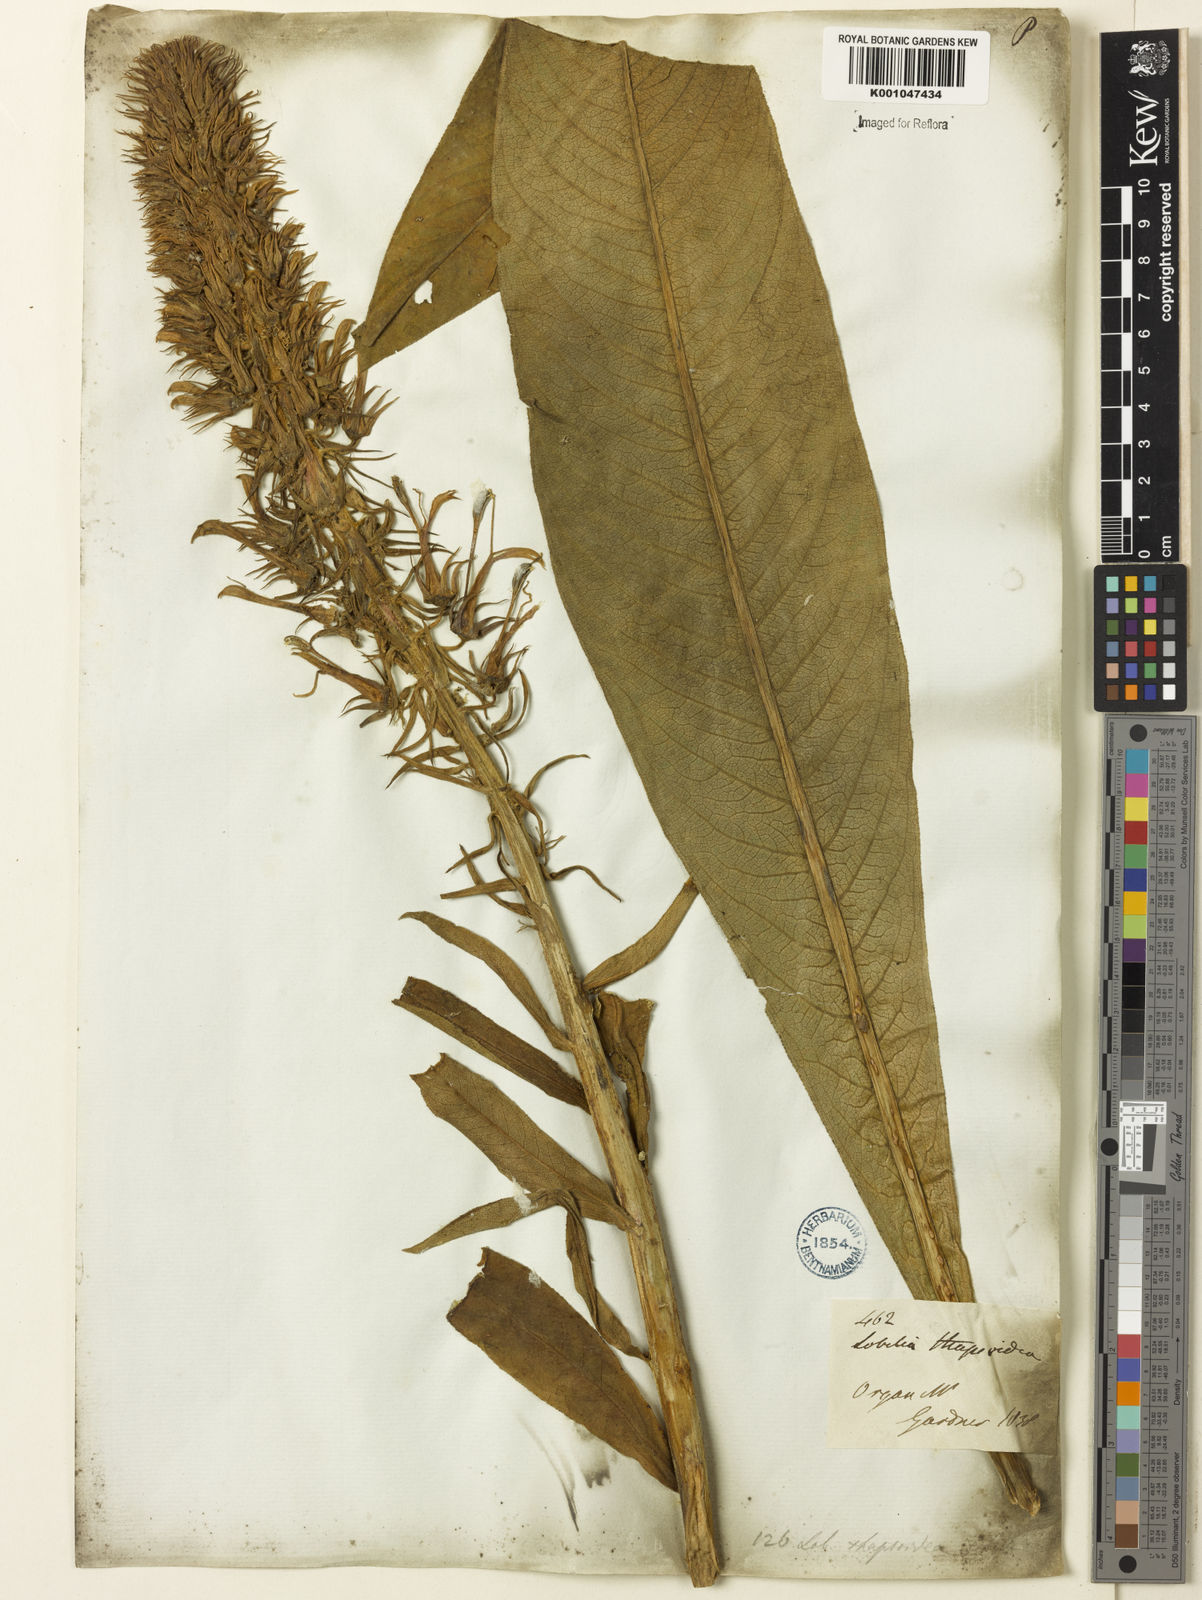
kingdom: Plantae
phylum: Tracheophyta
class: Magnoliopsida
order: Asterales
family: Campanulaceae
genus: Lobelia
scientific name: Lobelia
